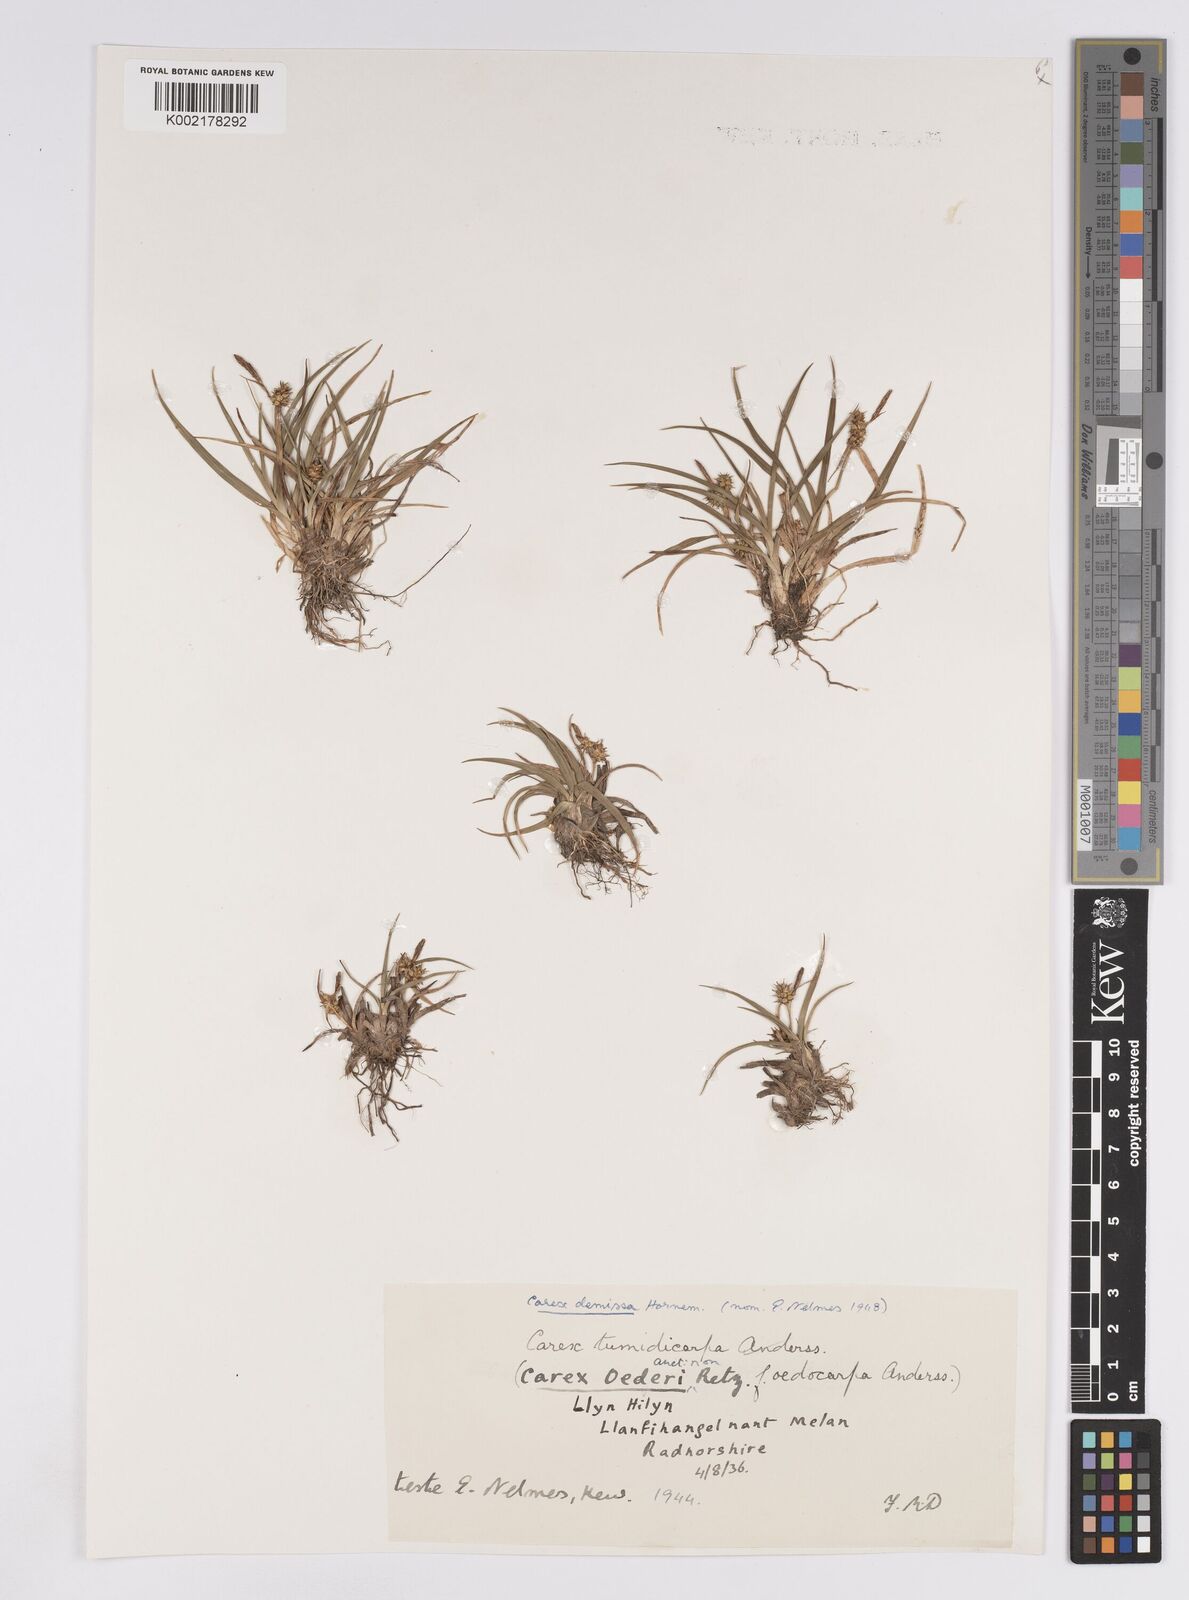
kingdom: Plantae
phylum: Tracheophyta
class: Liliopsida
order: Poales
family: Cyperaceae
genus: Carex
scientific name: Carex demissa
